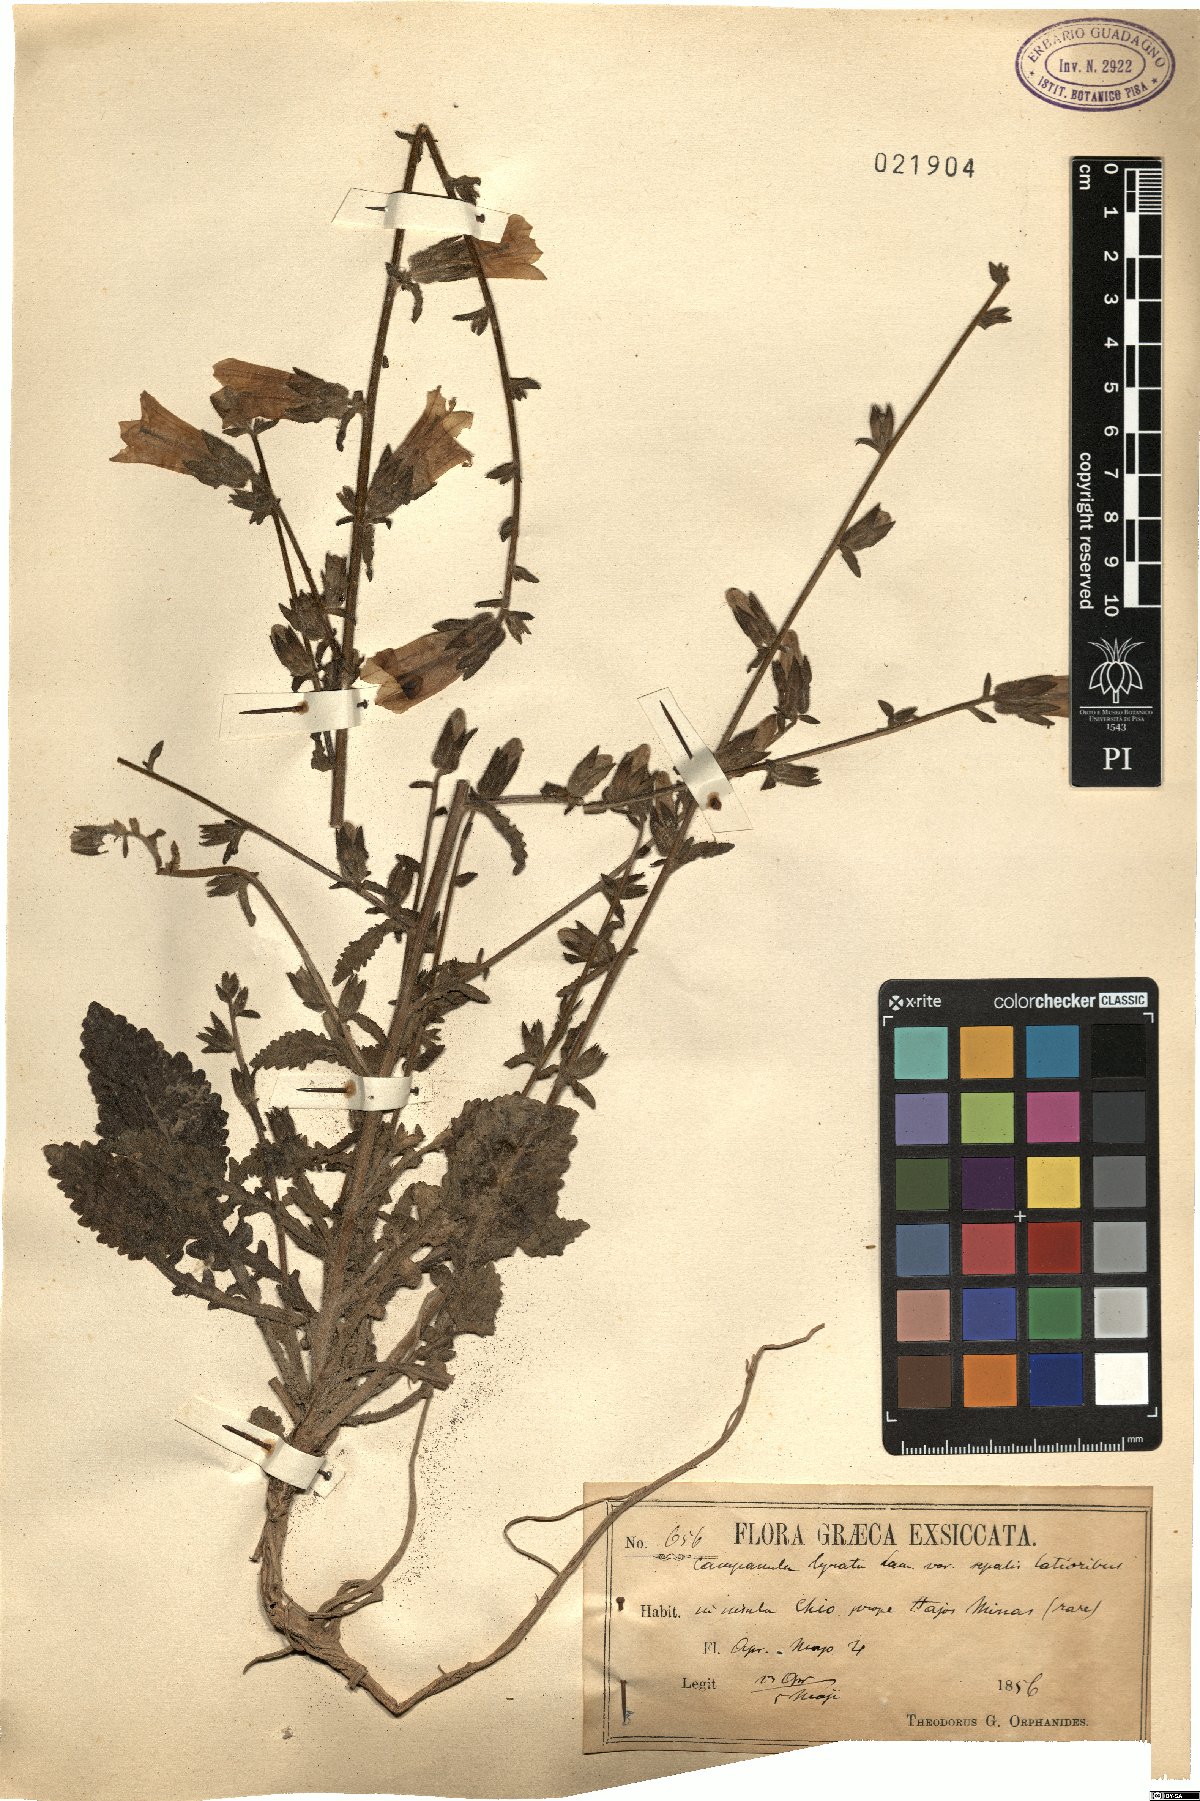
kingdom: Plantae
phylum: Tracheophyta
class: Magnoliopsida
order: Asterales
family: Campanulaceae
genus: Campanula
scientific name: Campanula lyrata
